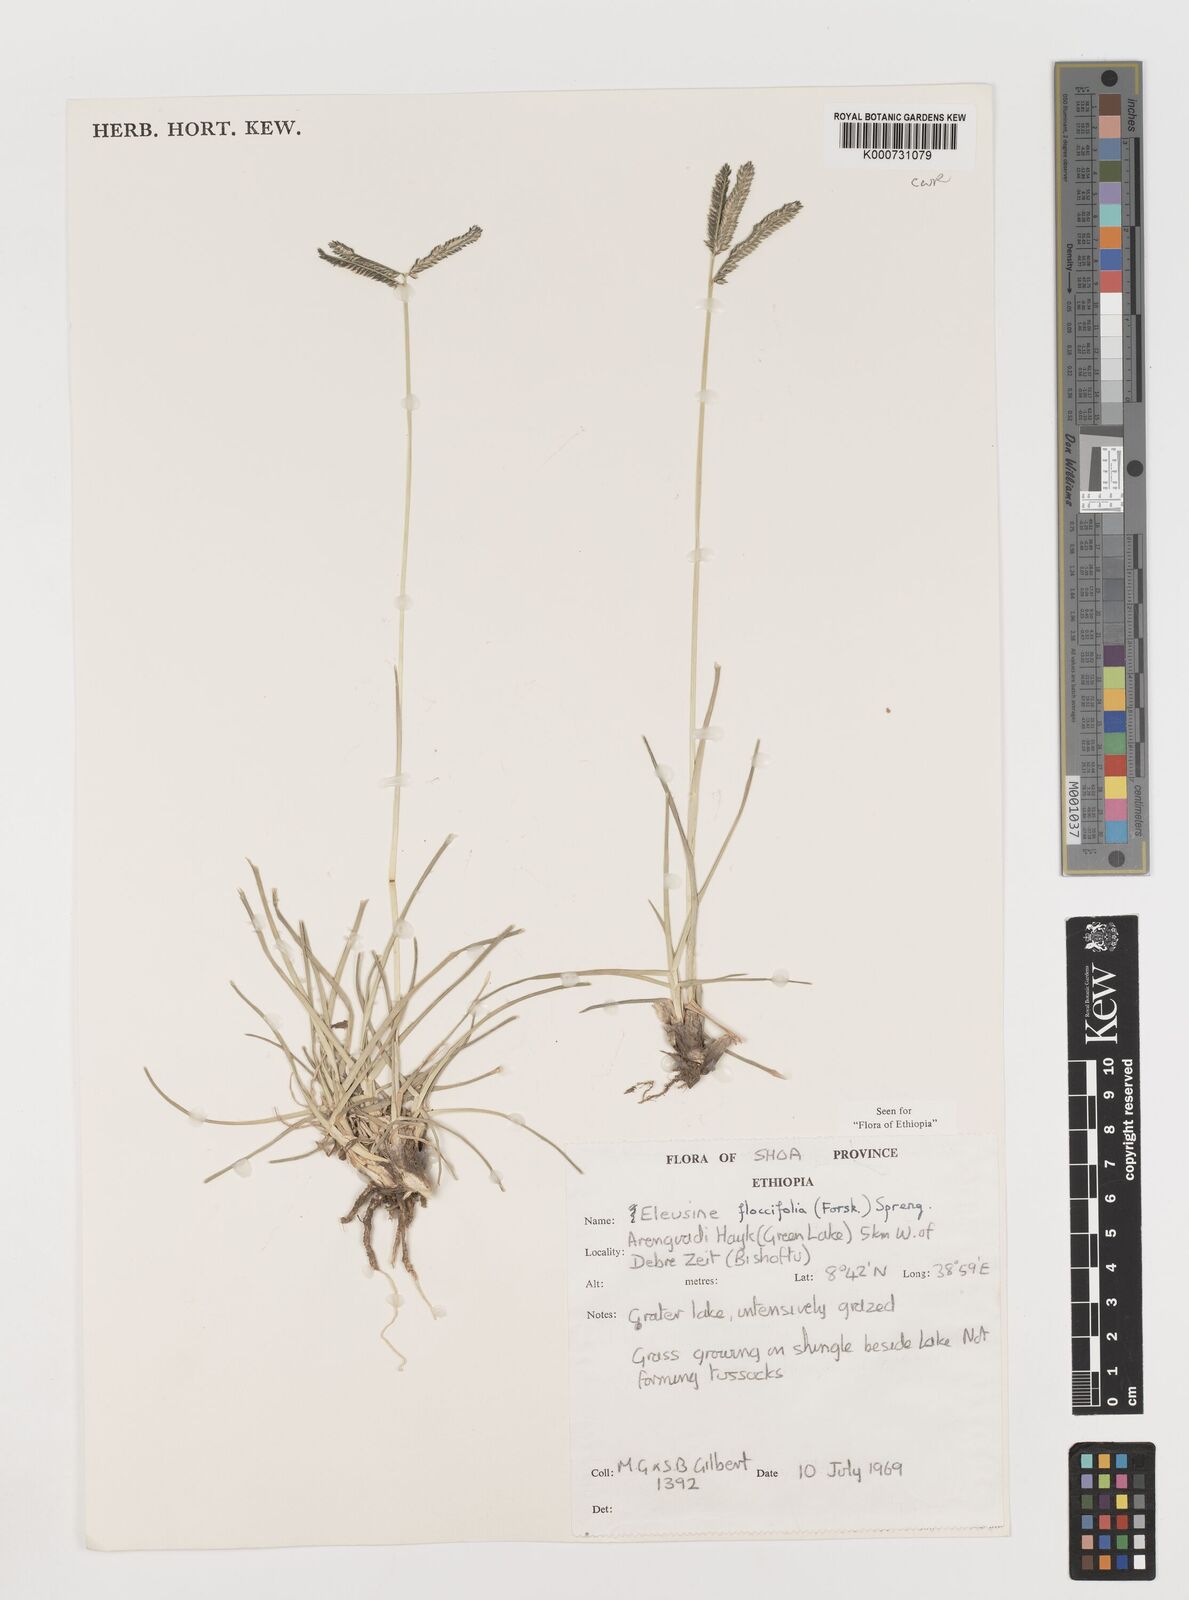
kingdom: Plantae
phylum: Tracheophyta
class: Liliopsida
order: Poales
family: Poaceae
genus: Eleusine
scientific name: Eleusine floccifolia
